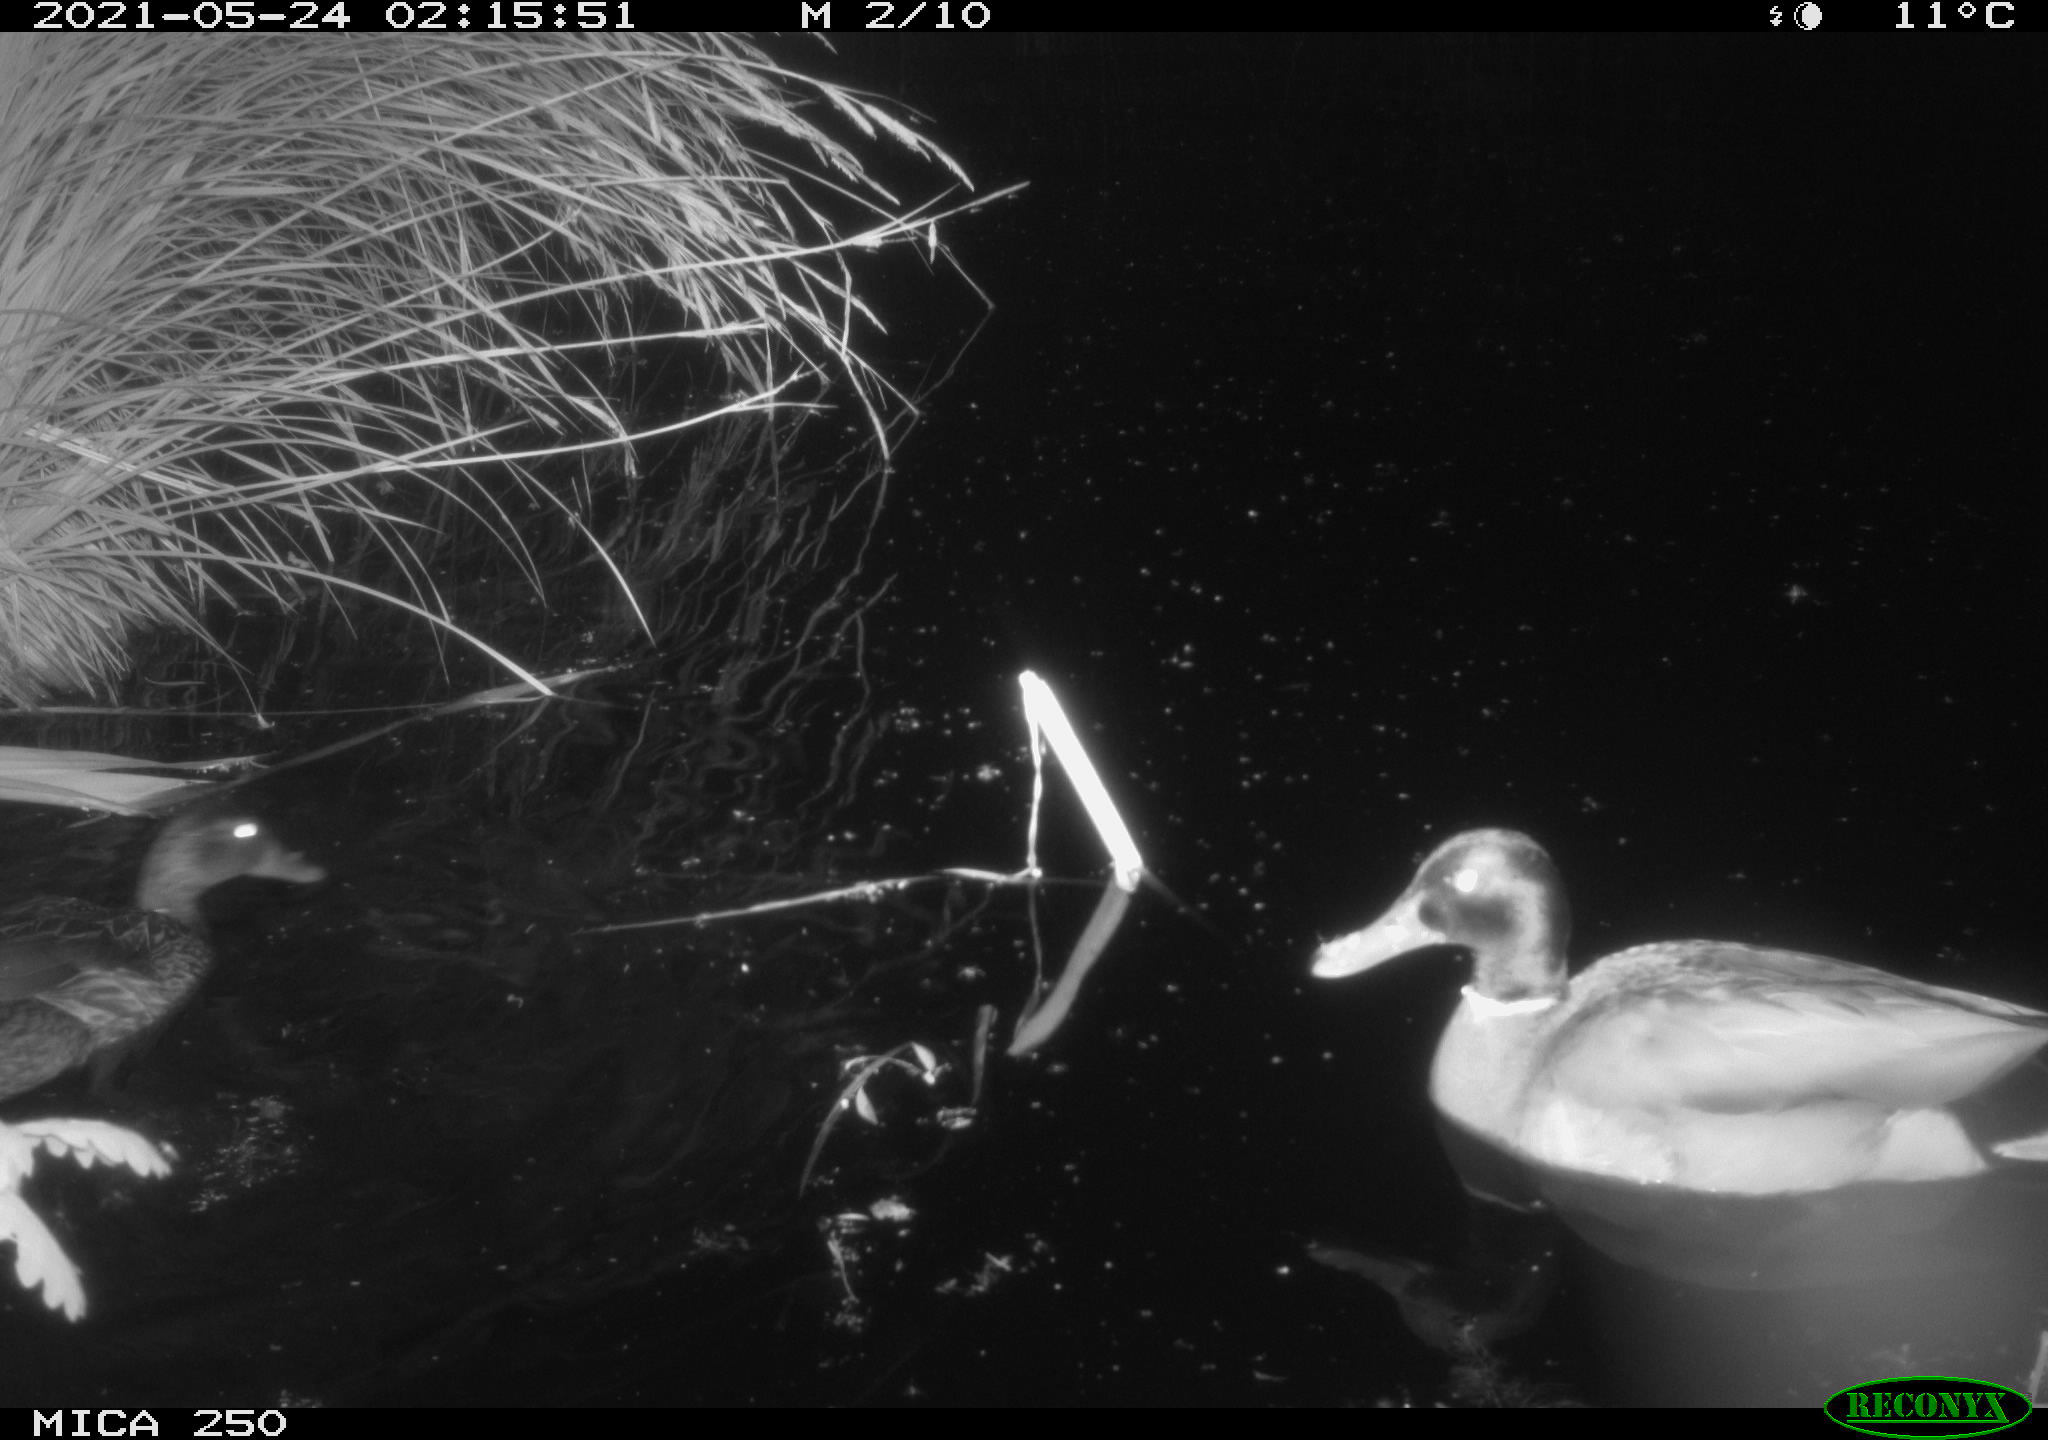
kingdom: Animalia
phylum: Chordata
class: Aves
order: Anseriformes
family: Anatidae
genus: Mareca
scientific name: Mareca strepera
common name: Gadwall
